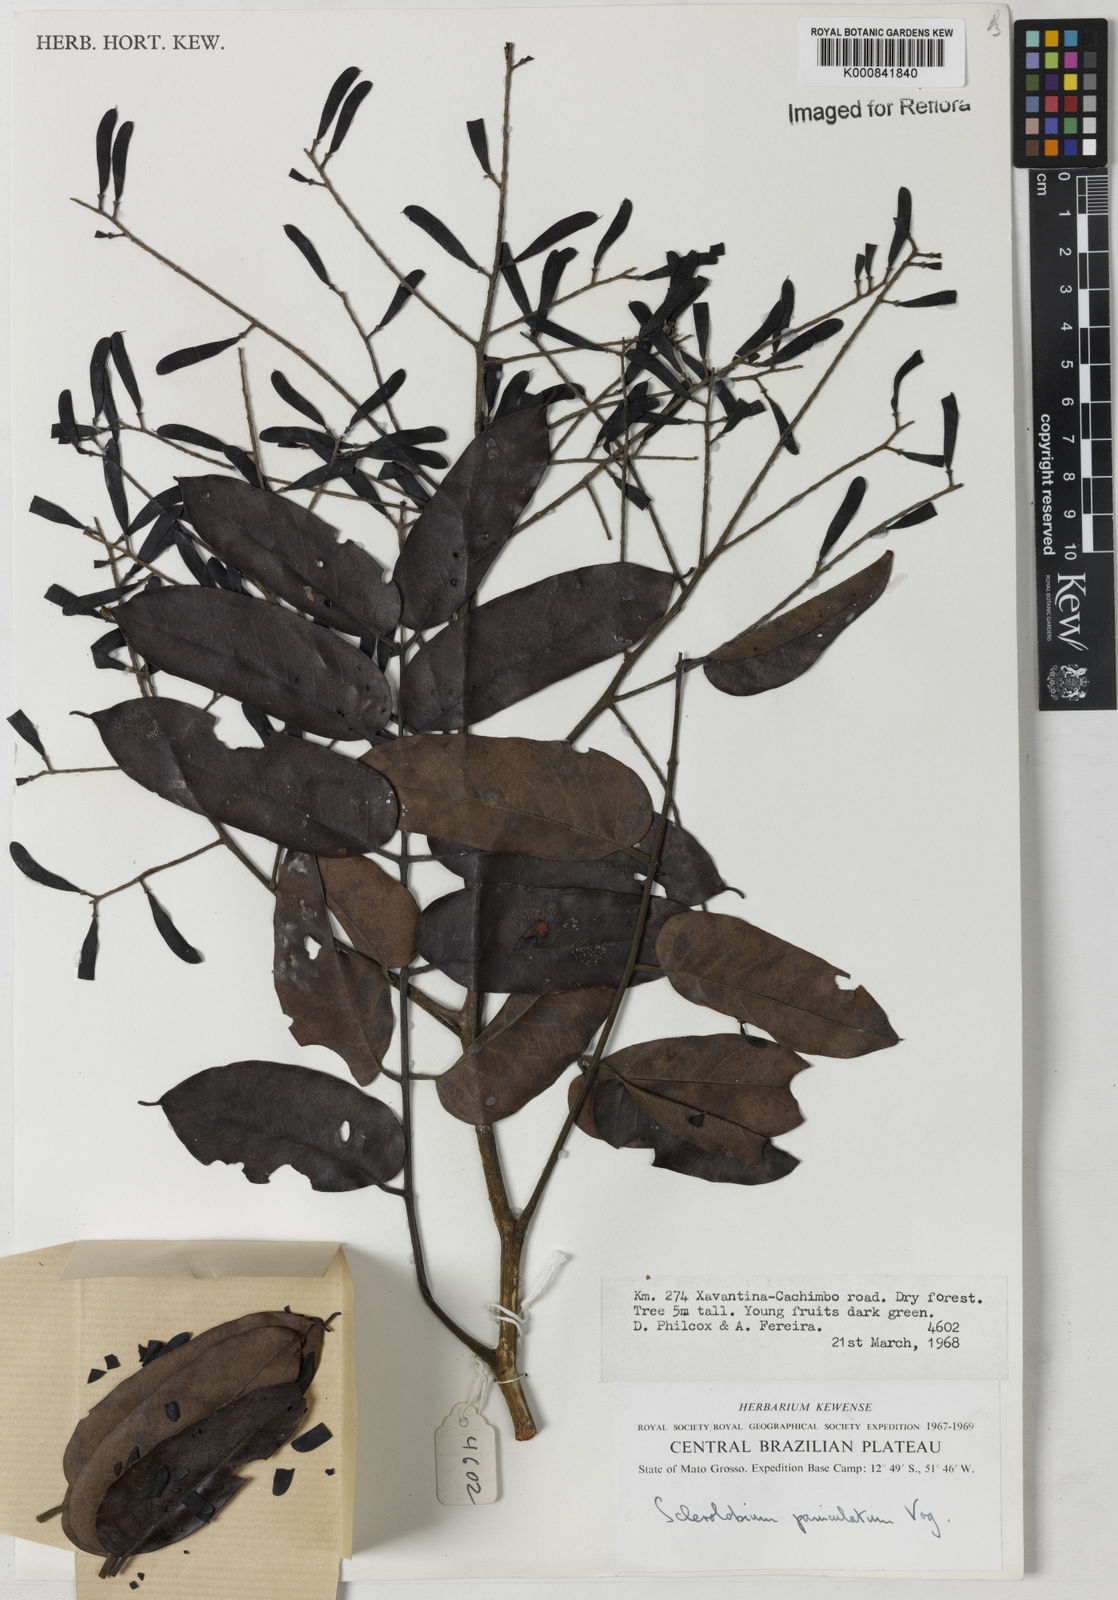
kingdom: Plantae
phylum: Tracheophyta
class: Magnoliopsida
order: Fabales
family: Fabaceae
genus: Tachigali
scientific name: Tachigali vulgaris
